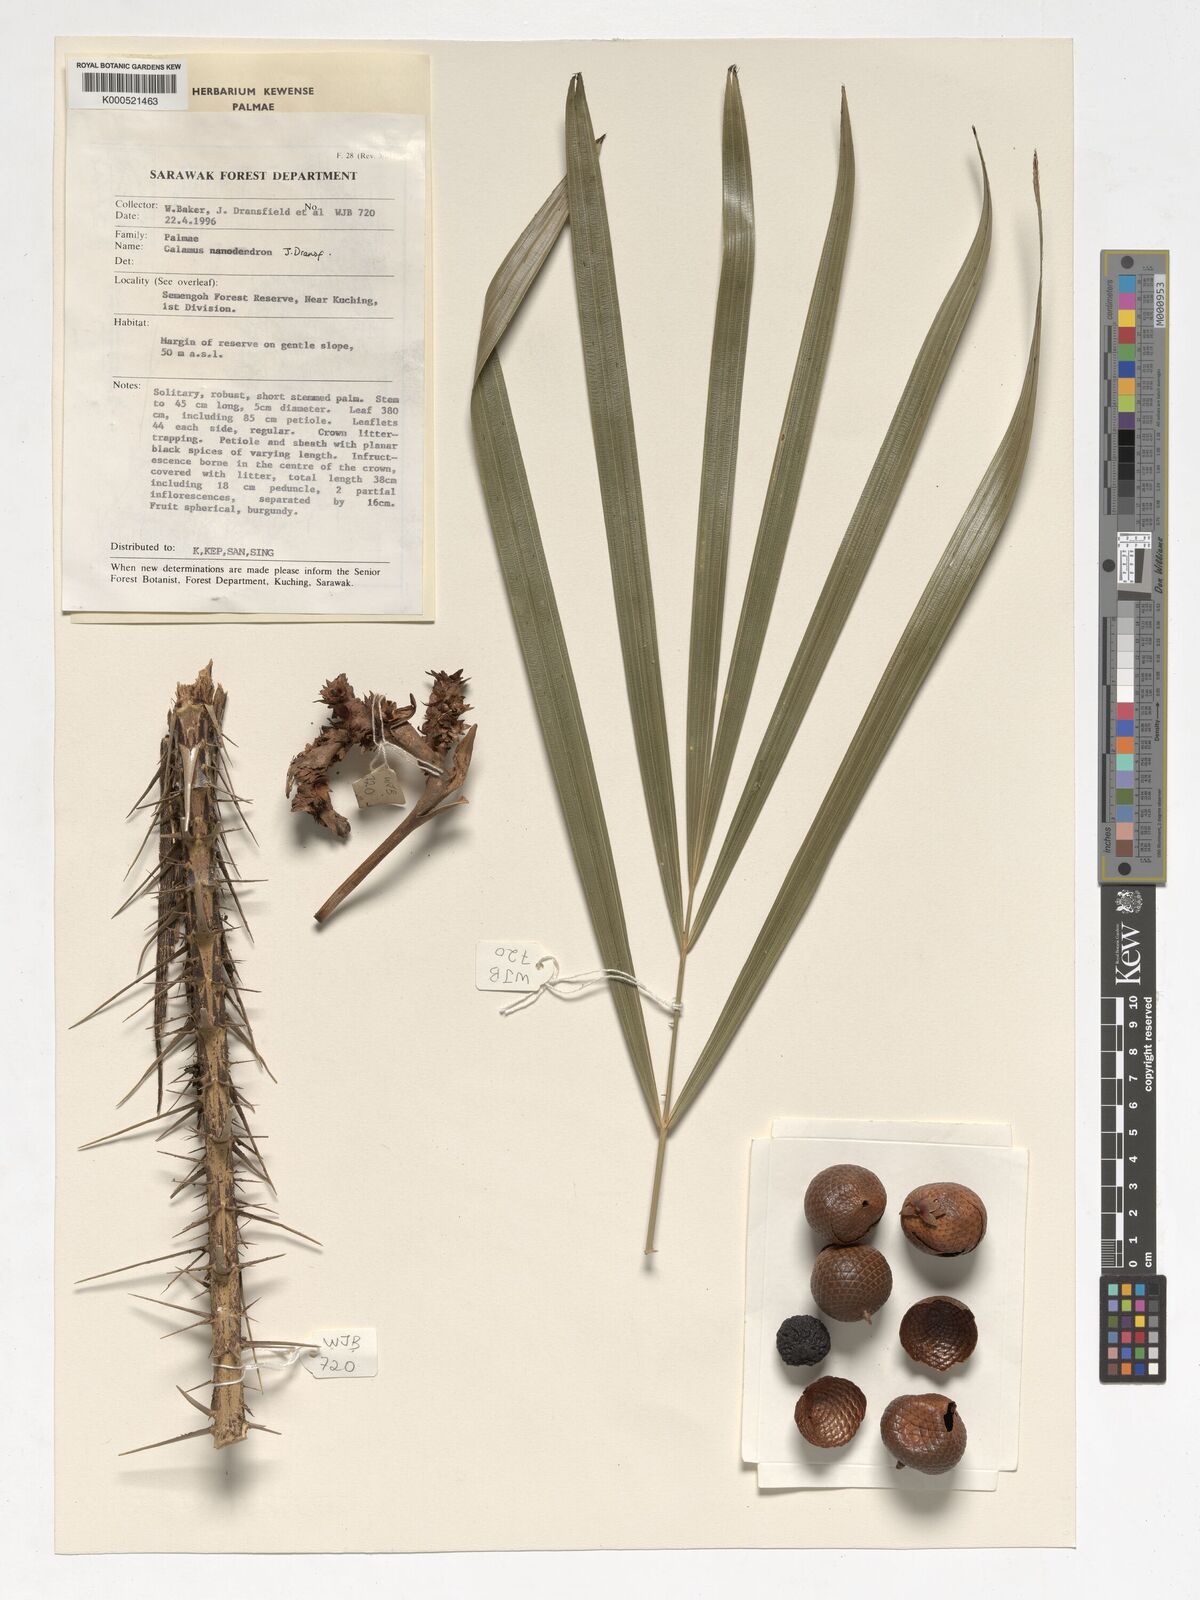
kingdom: Plantae
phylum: Tracheophyta
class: Liliopsida
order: Arecales
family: Arecaceae
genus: Calamus
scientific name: Calamus nanodendron
